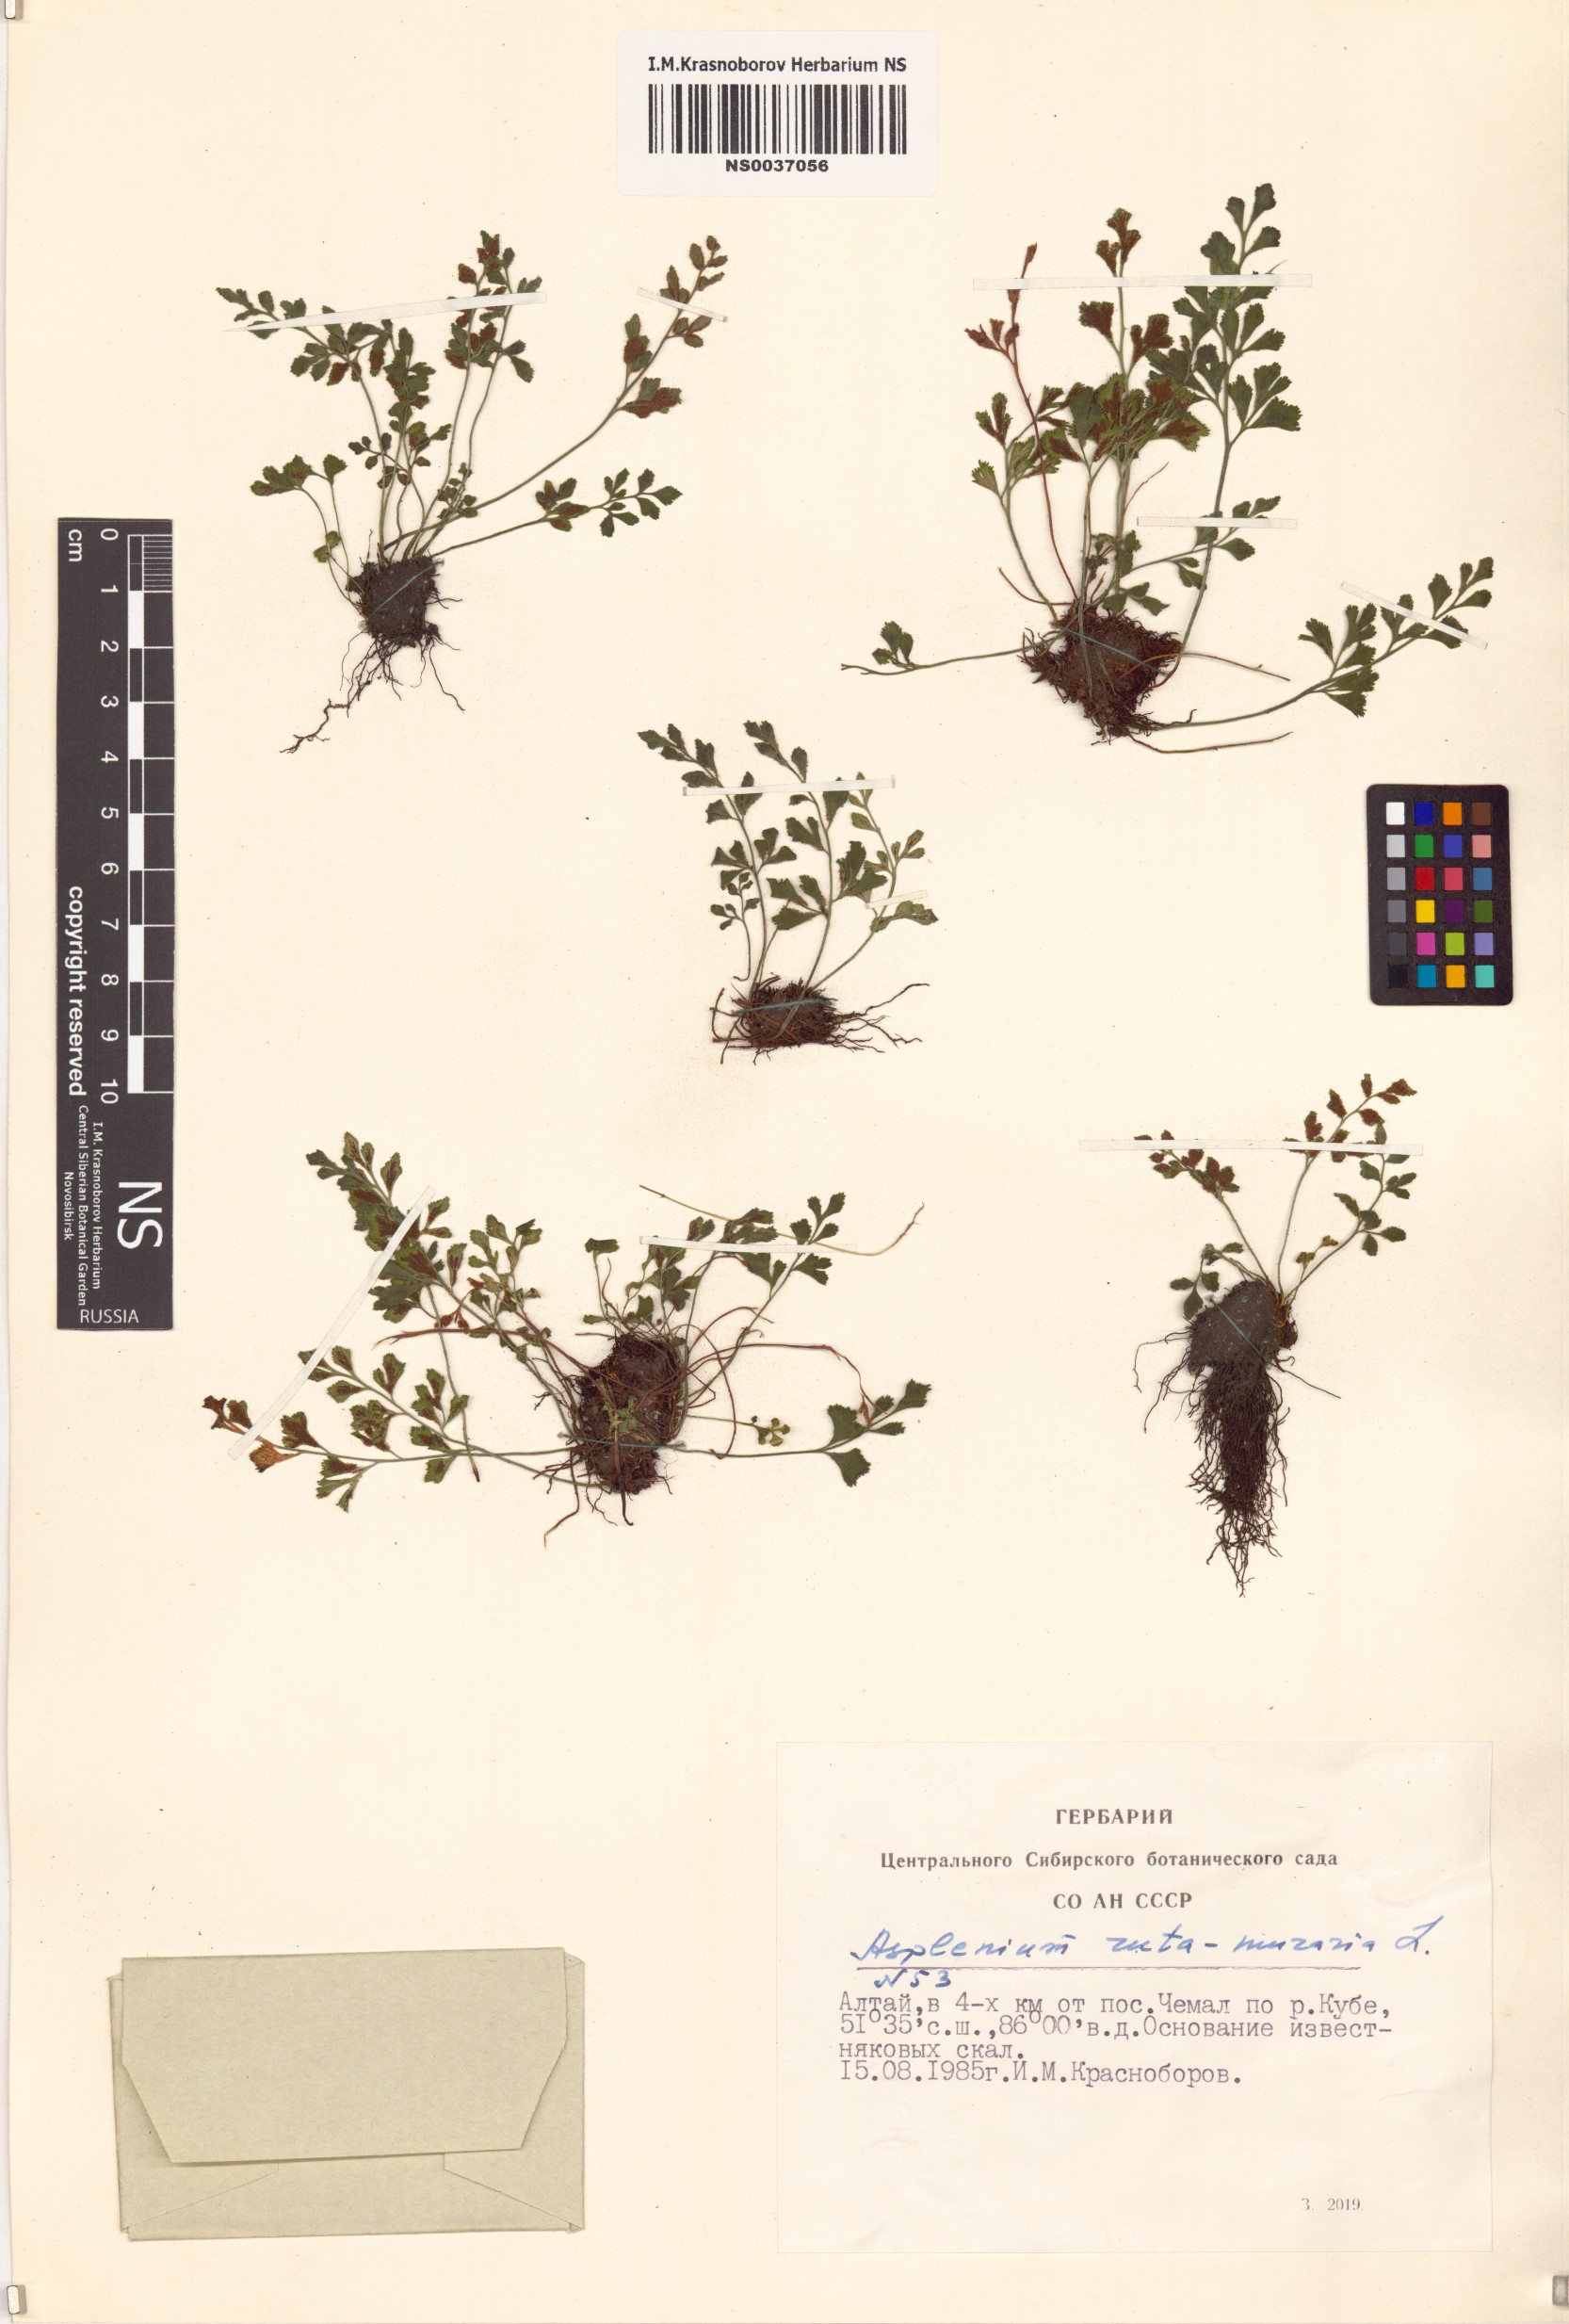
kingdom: Plantae
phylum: Tracheophyta
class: Polypodiopsida
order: Polypodiales
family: Aspleniaceae
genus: Asplenium
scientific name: Asplenium ruta-muraria
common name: Wall-rue
